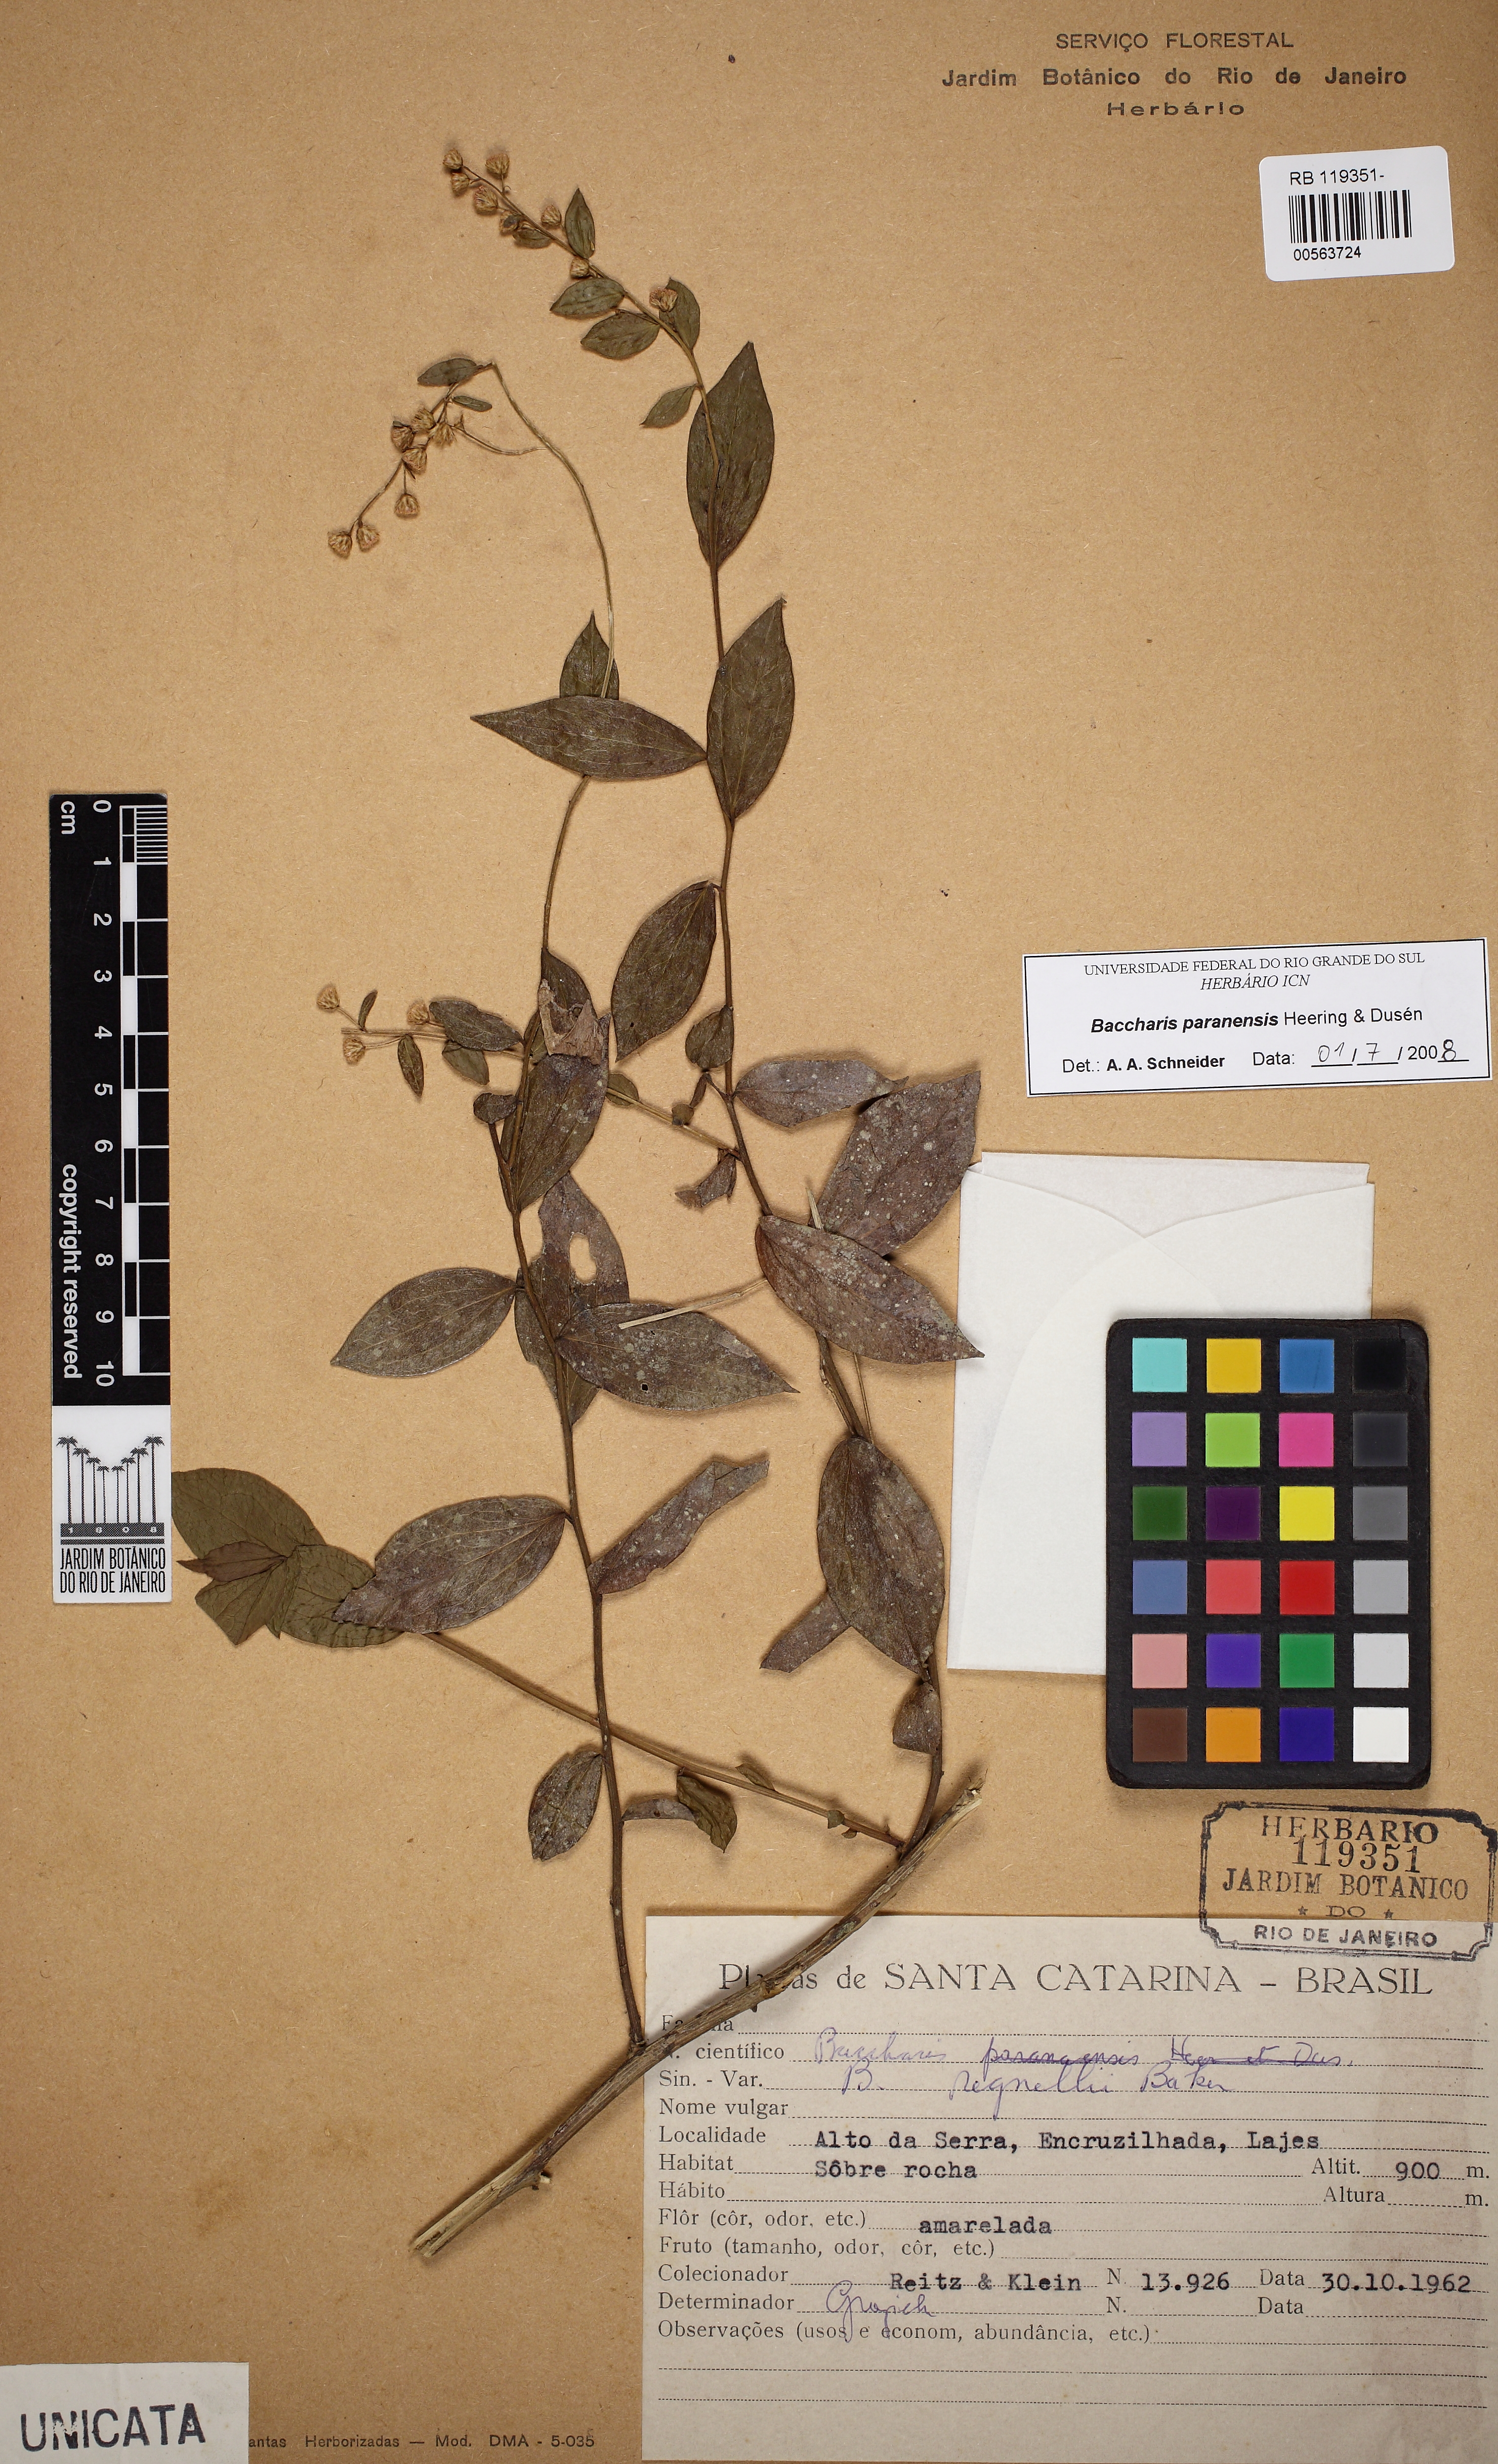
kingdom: Plantae
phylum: Tracheophyta
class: Magnoliopsida
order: Asterales
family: Asteraceae
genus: Baccharis
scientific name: Baccharis paranensis
